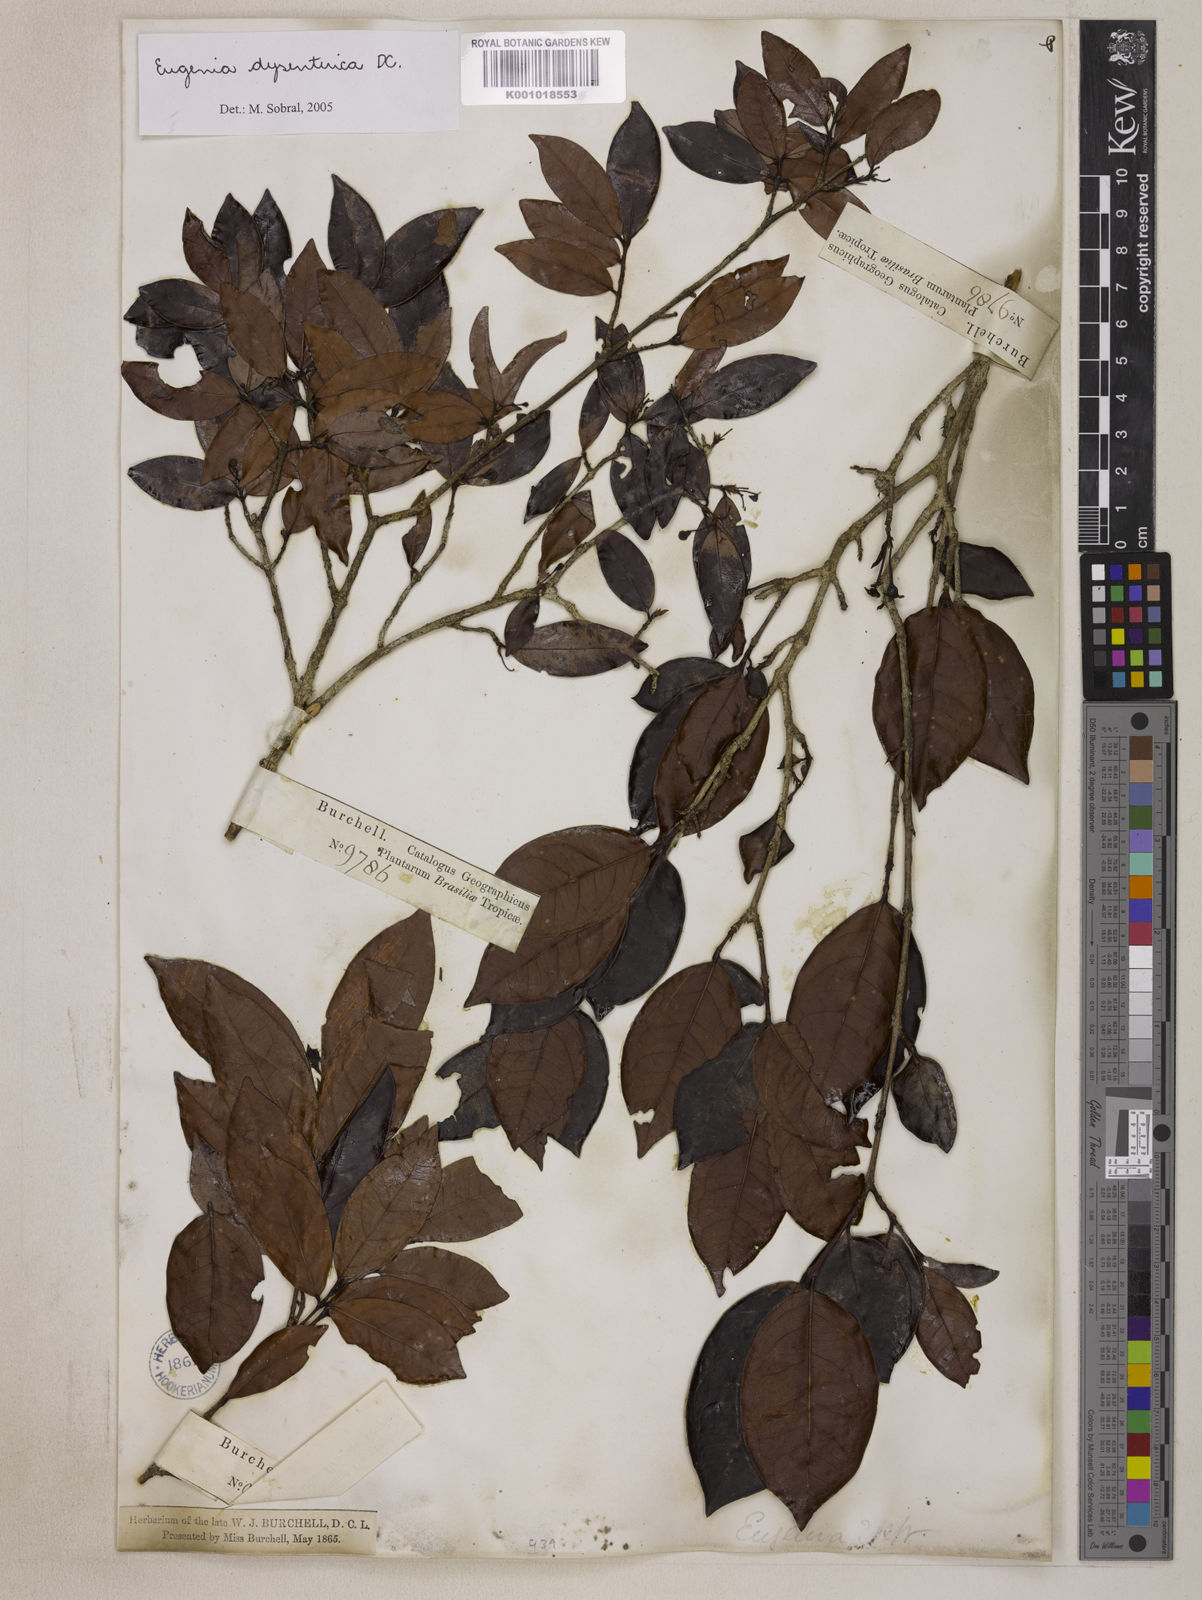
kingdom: Plantae
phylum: Tracheophyta
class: Magnoliopsida
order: Myrtales
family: Myrtaceae
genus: Eugenia
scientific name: Eugenia dysenterica
